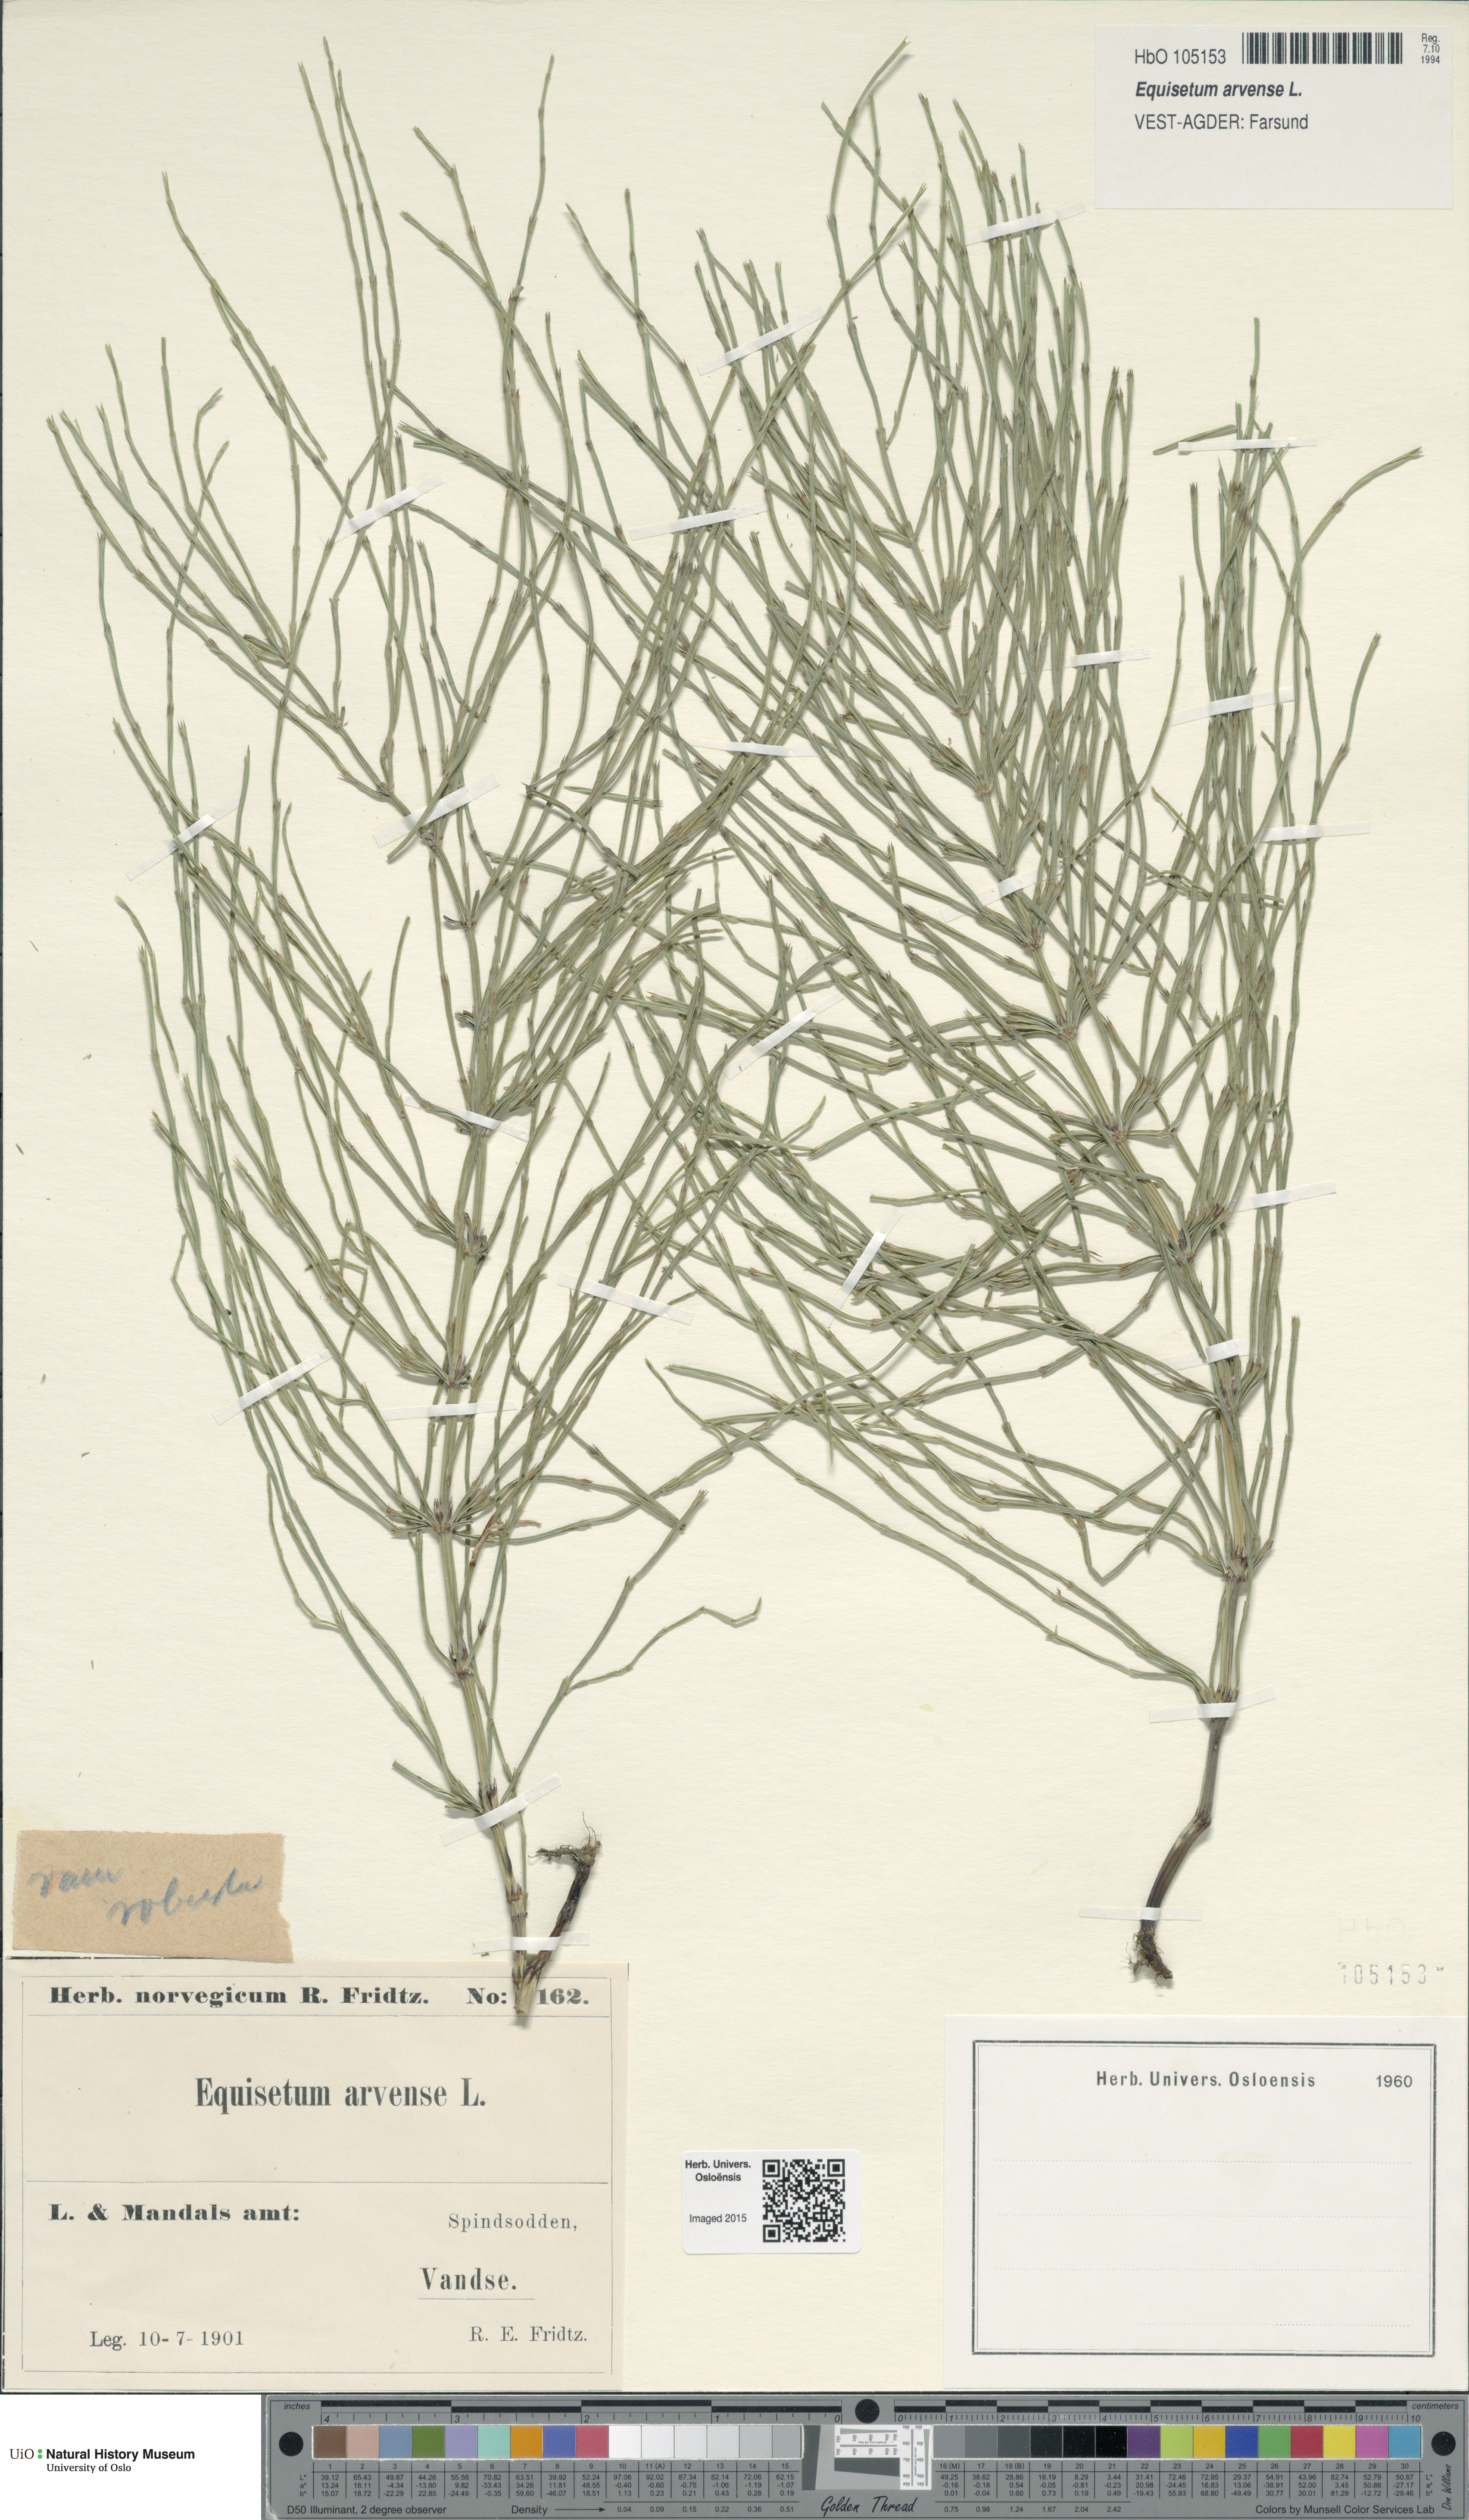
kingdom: Plantae
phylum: Tracheophyta
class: Polypodiopsida
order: Equisetales
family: Equisetaceae
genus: Equisetum
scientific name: Equisetum arvense
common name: Field horsetail
